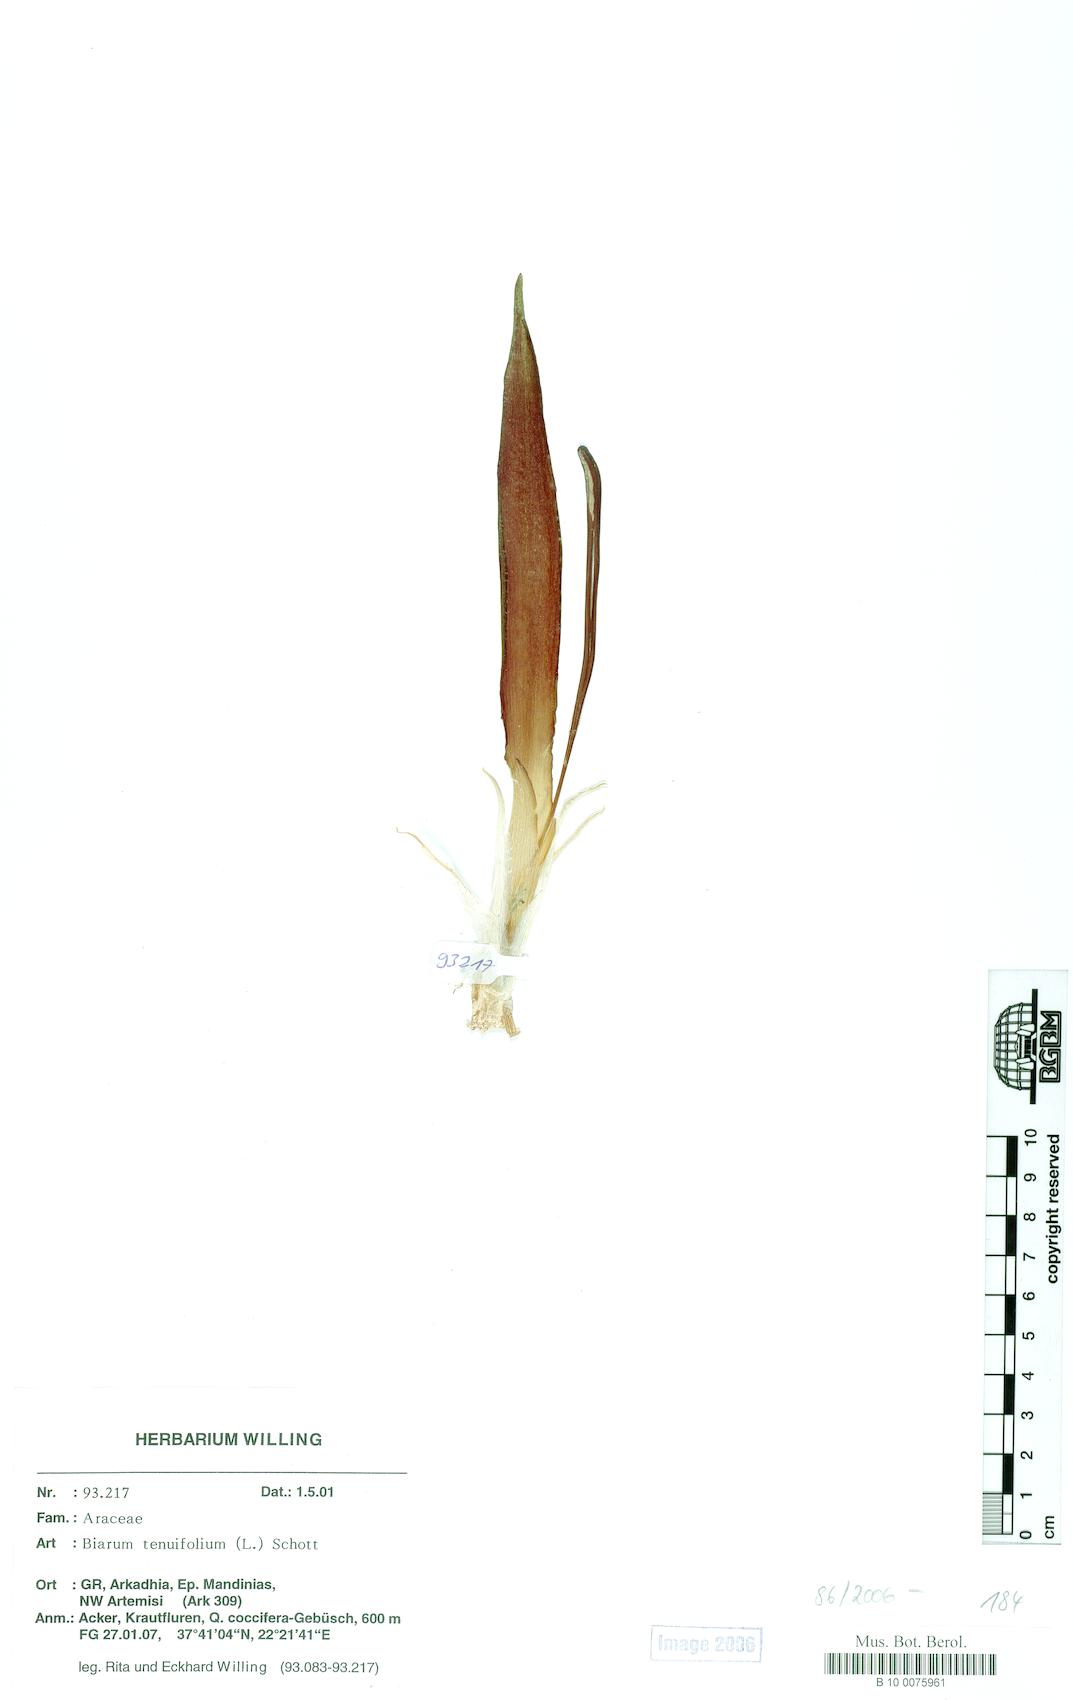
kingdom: Plantae
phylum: Tracheophyta
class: Liliopsida
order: Alismatales
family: Araceae
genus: Biarum
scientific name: Biarum tenuifolium
